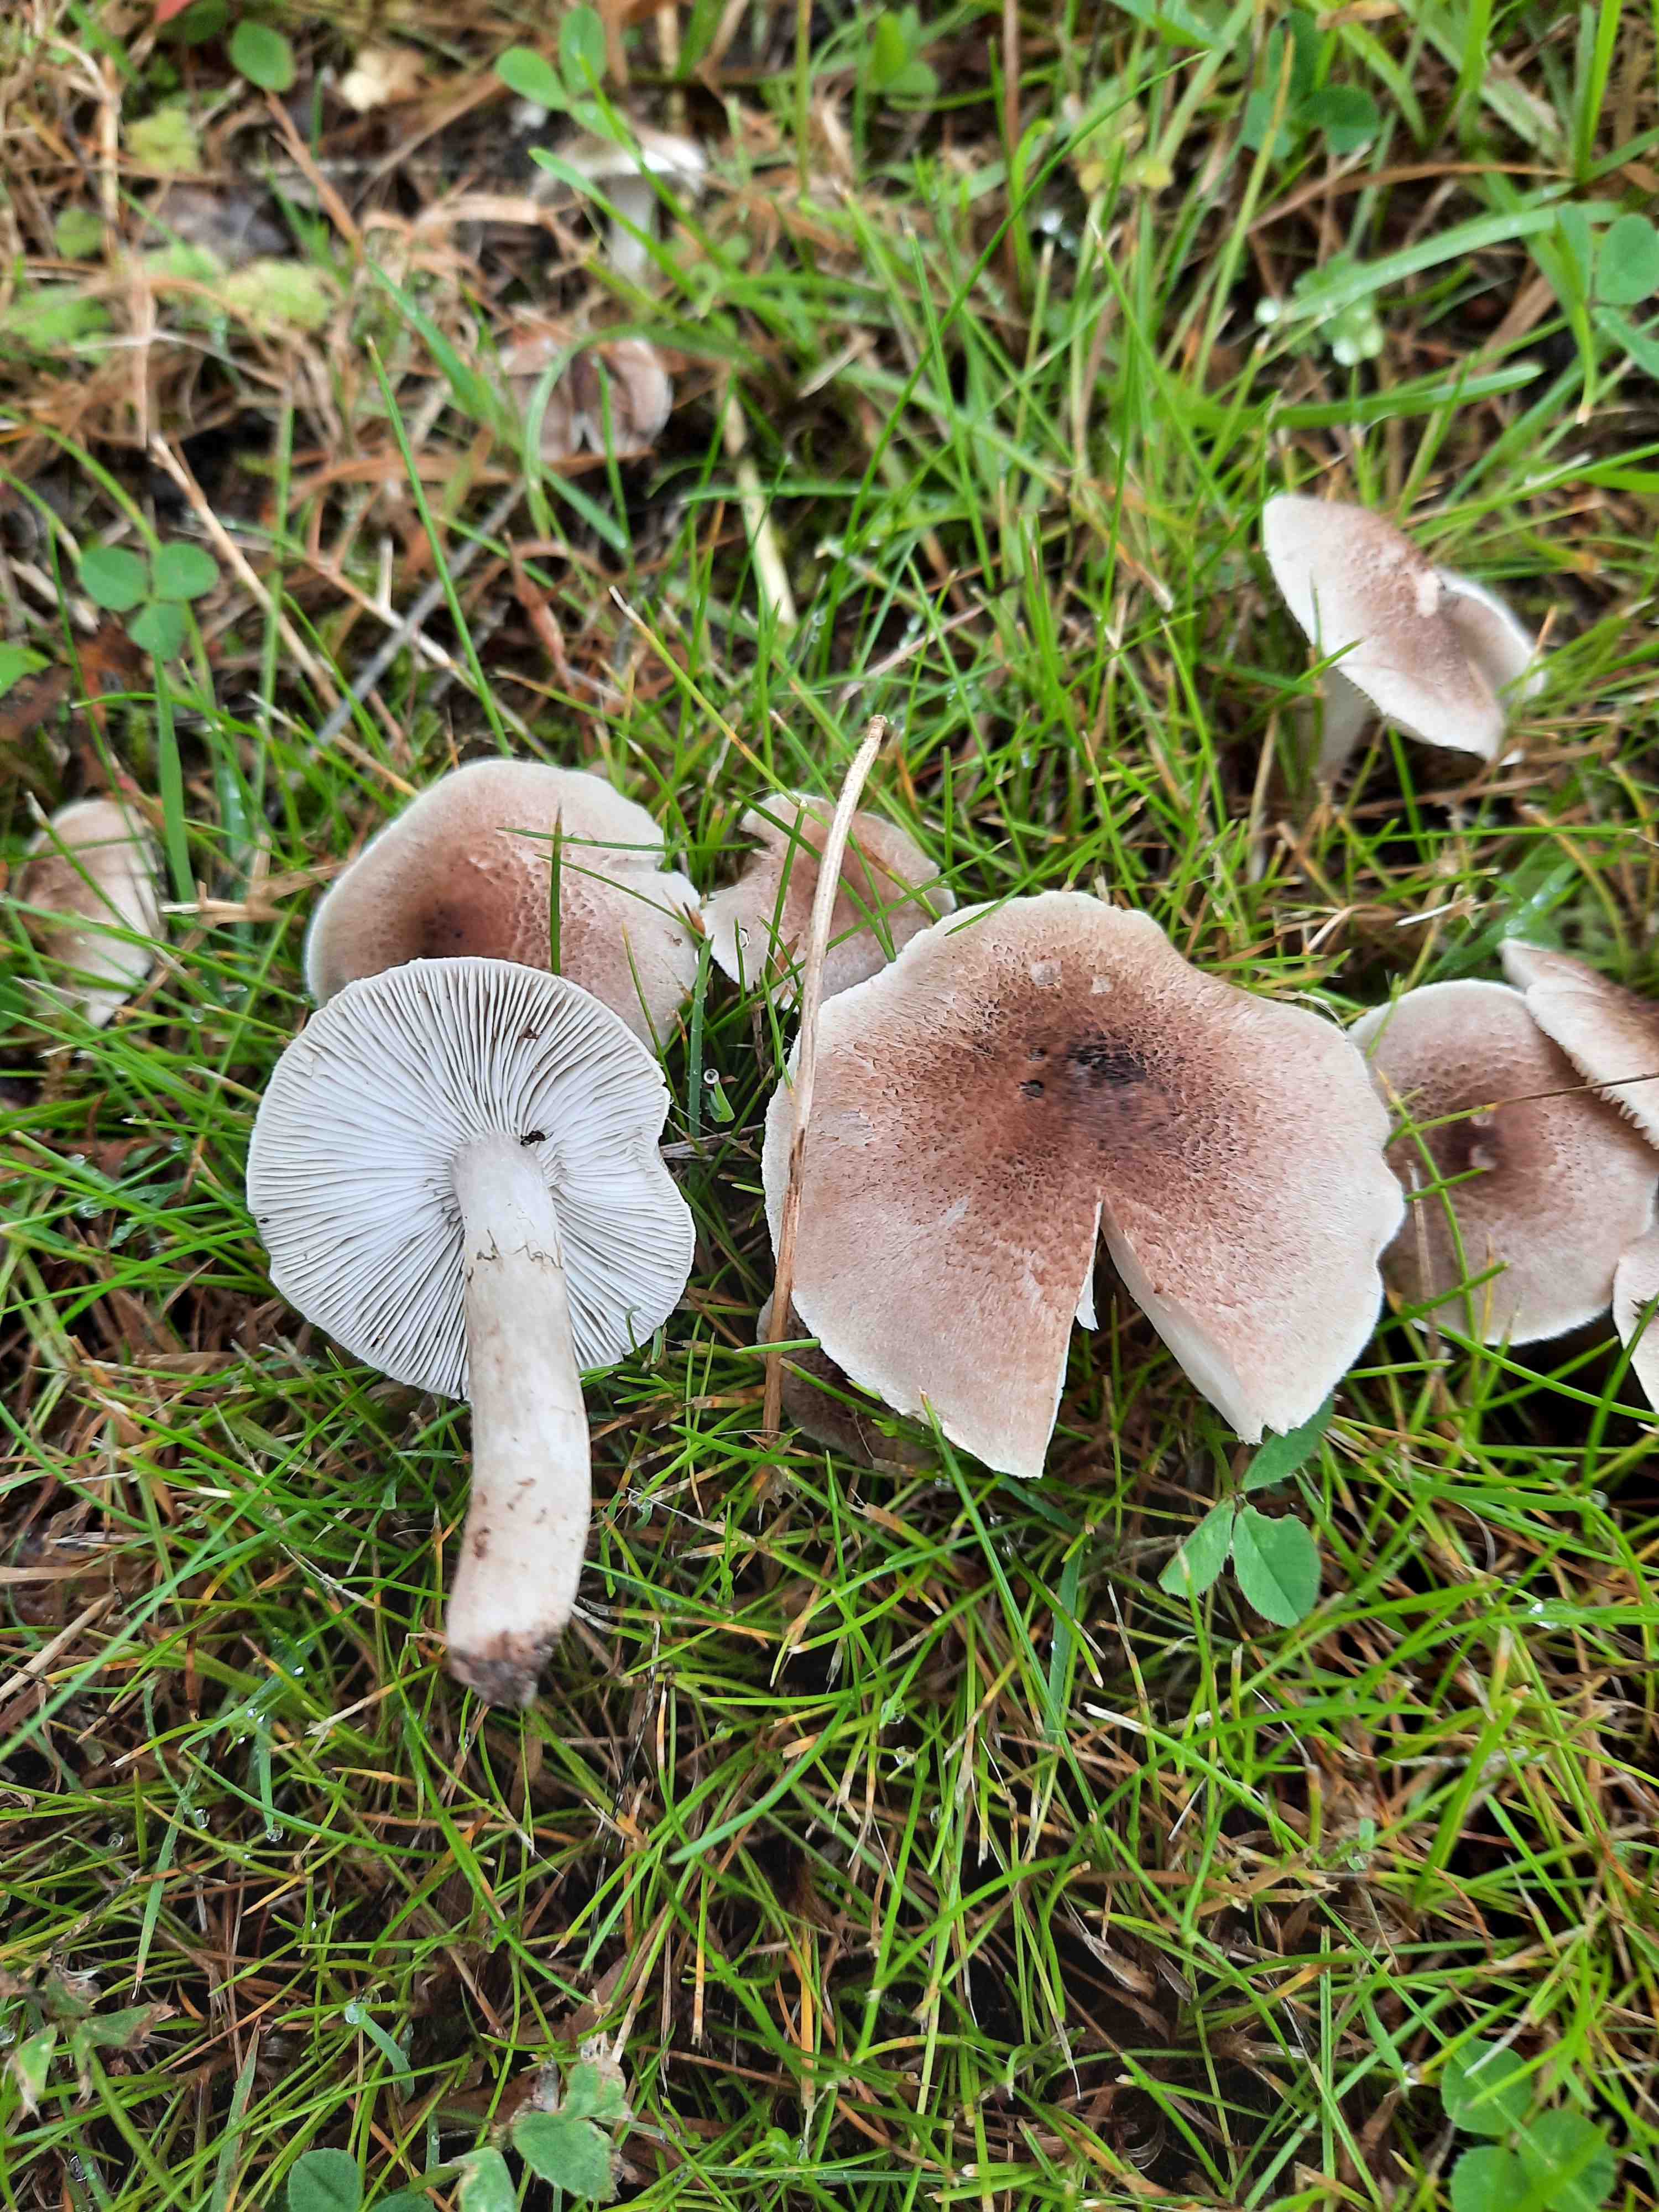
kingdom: Fungi
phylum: Basidiomycota
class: Agaricomycetes
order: Agaricales
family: Tricholomataceae
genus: Tricholoma
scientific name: Tricholoma argyraceum
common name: slør-ridderhat
